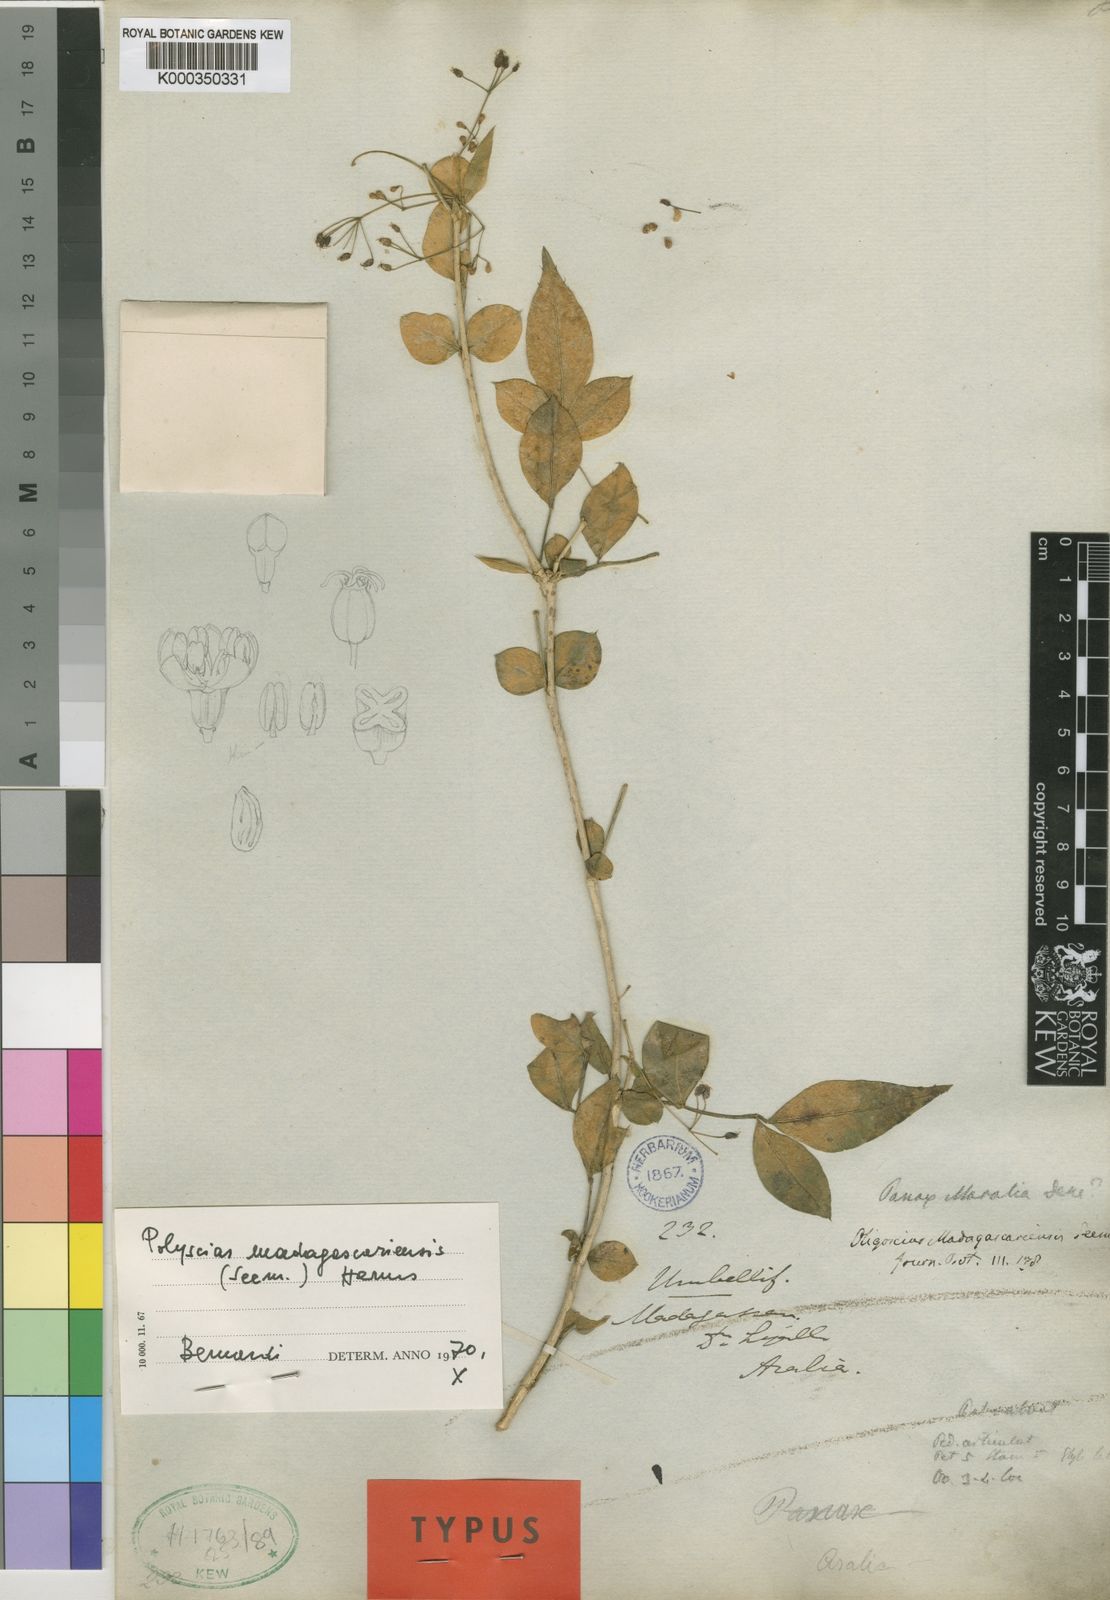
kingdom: Plantae
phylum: Tracheophyta
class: Magnoliopsida
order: Apiales
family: Araliaceae
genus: Polyscias
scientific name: Polyscias
